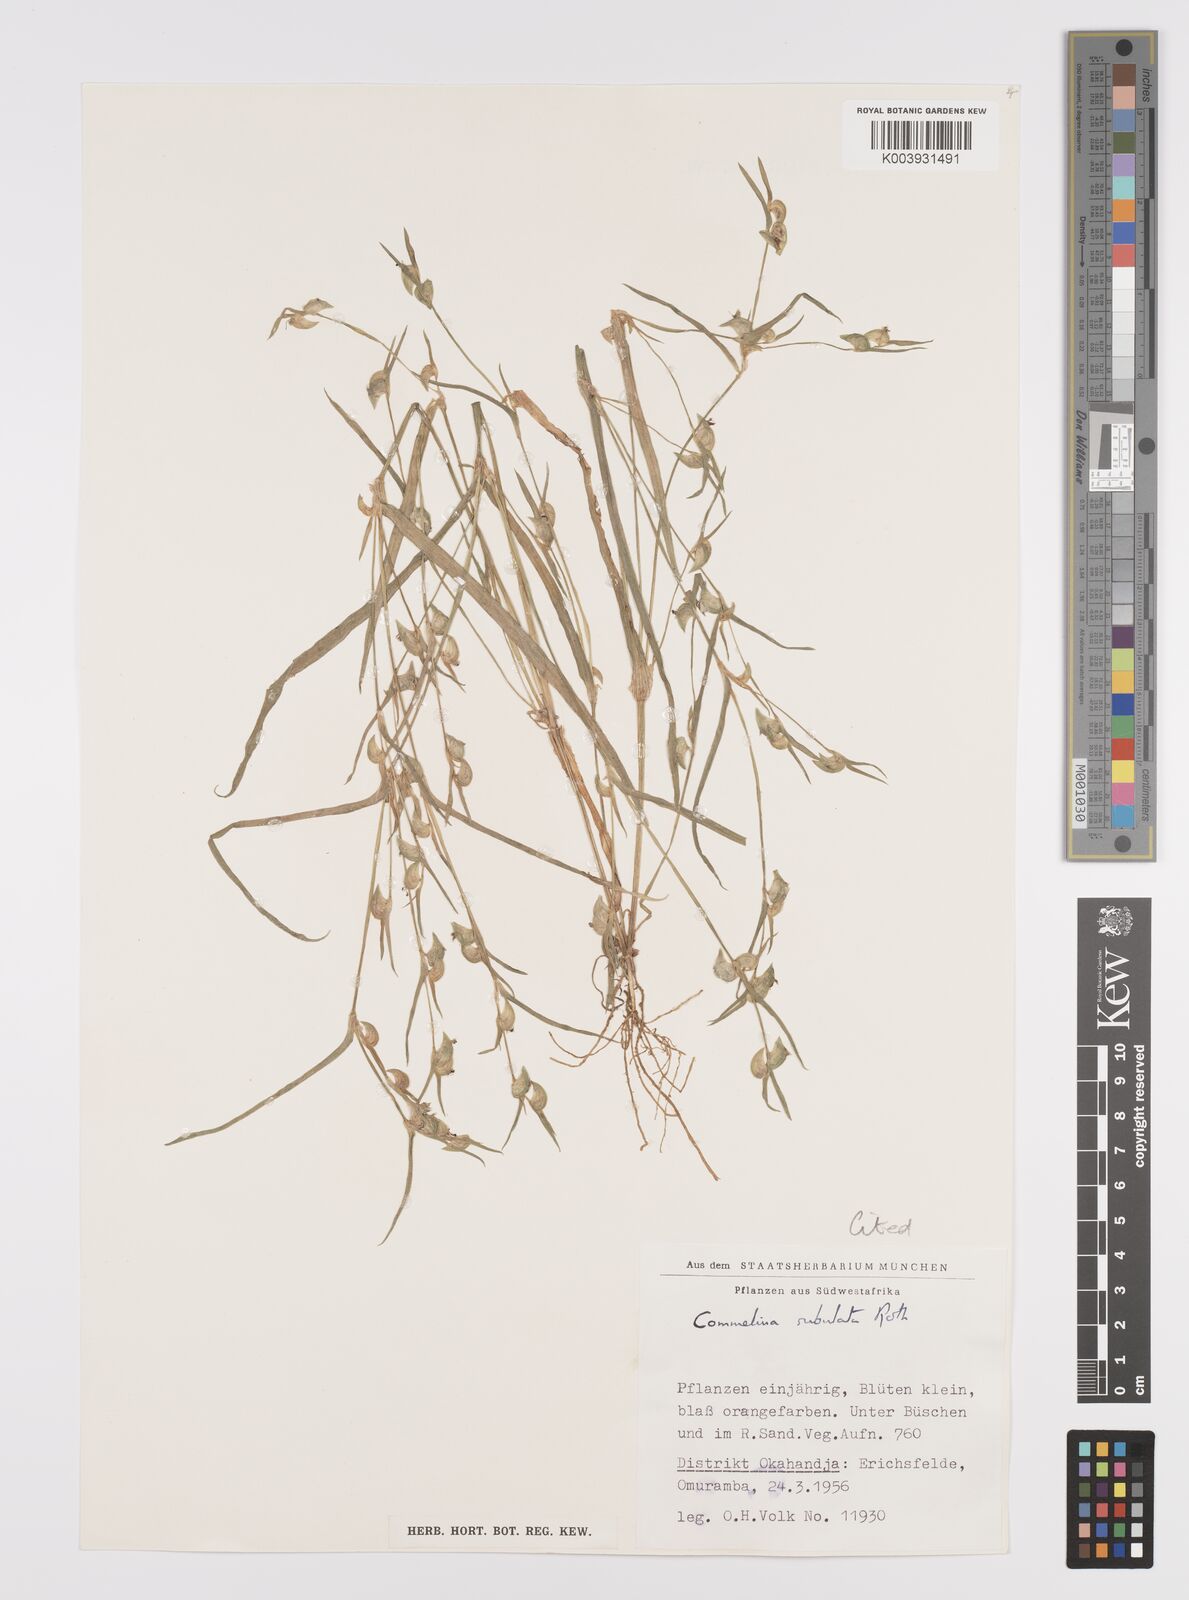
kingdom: Plantae
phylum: Tracheophyta
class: Liliopsida
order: Commelinales
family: Commelinaceae
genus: Commelina
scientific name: Commelina subulata
